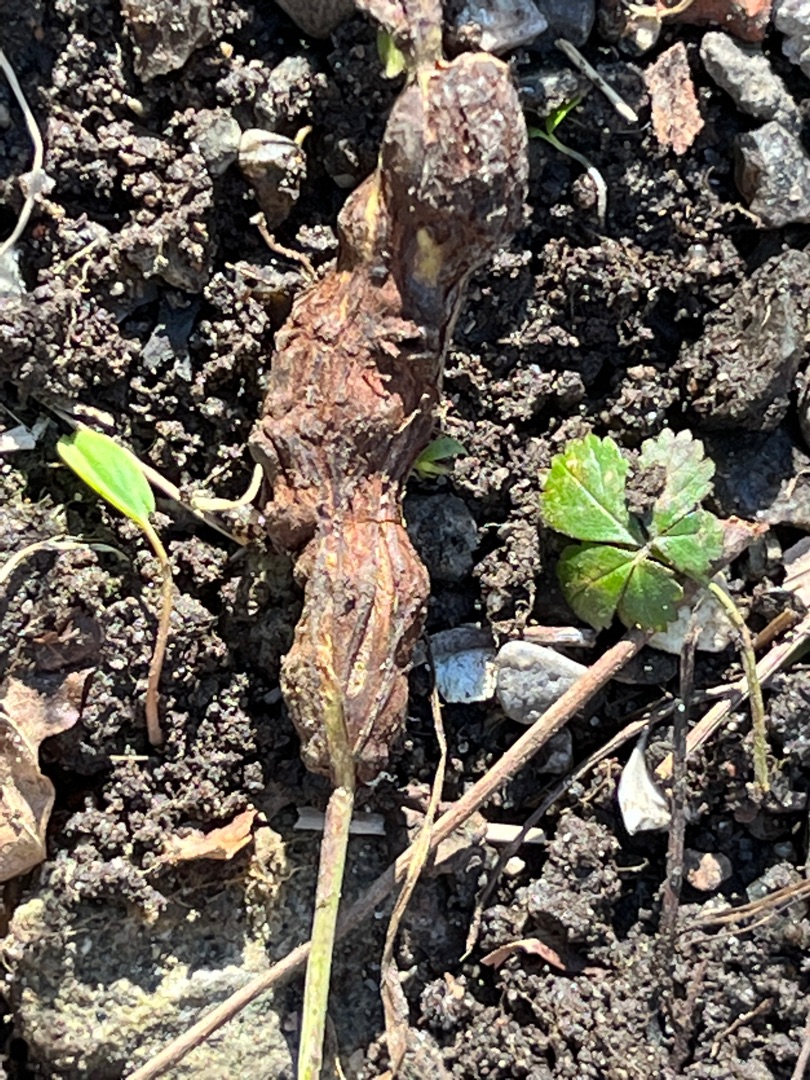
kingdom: Animalia
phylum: Arthropoda
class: Insecta
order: Hymenoptera
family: Cynipidae
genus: Xestophanes
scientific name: Xestophanes potentillae
